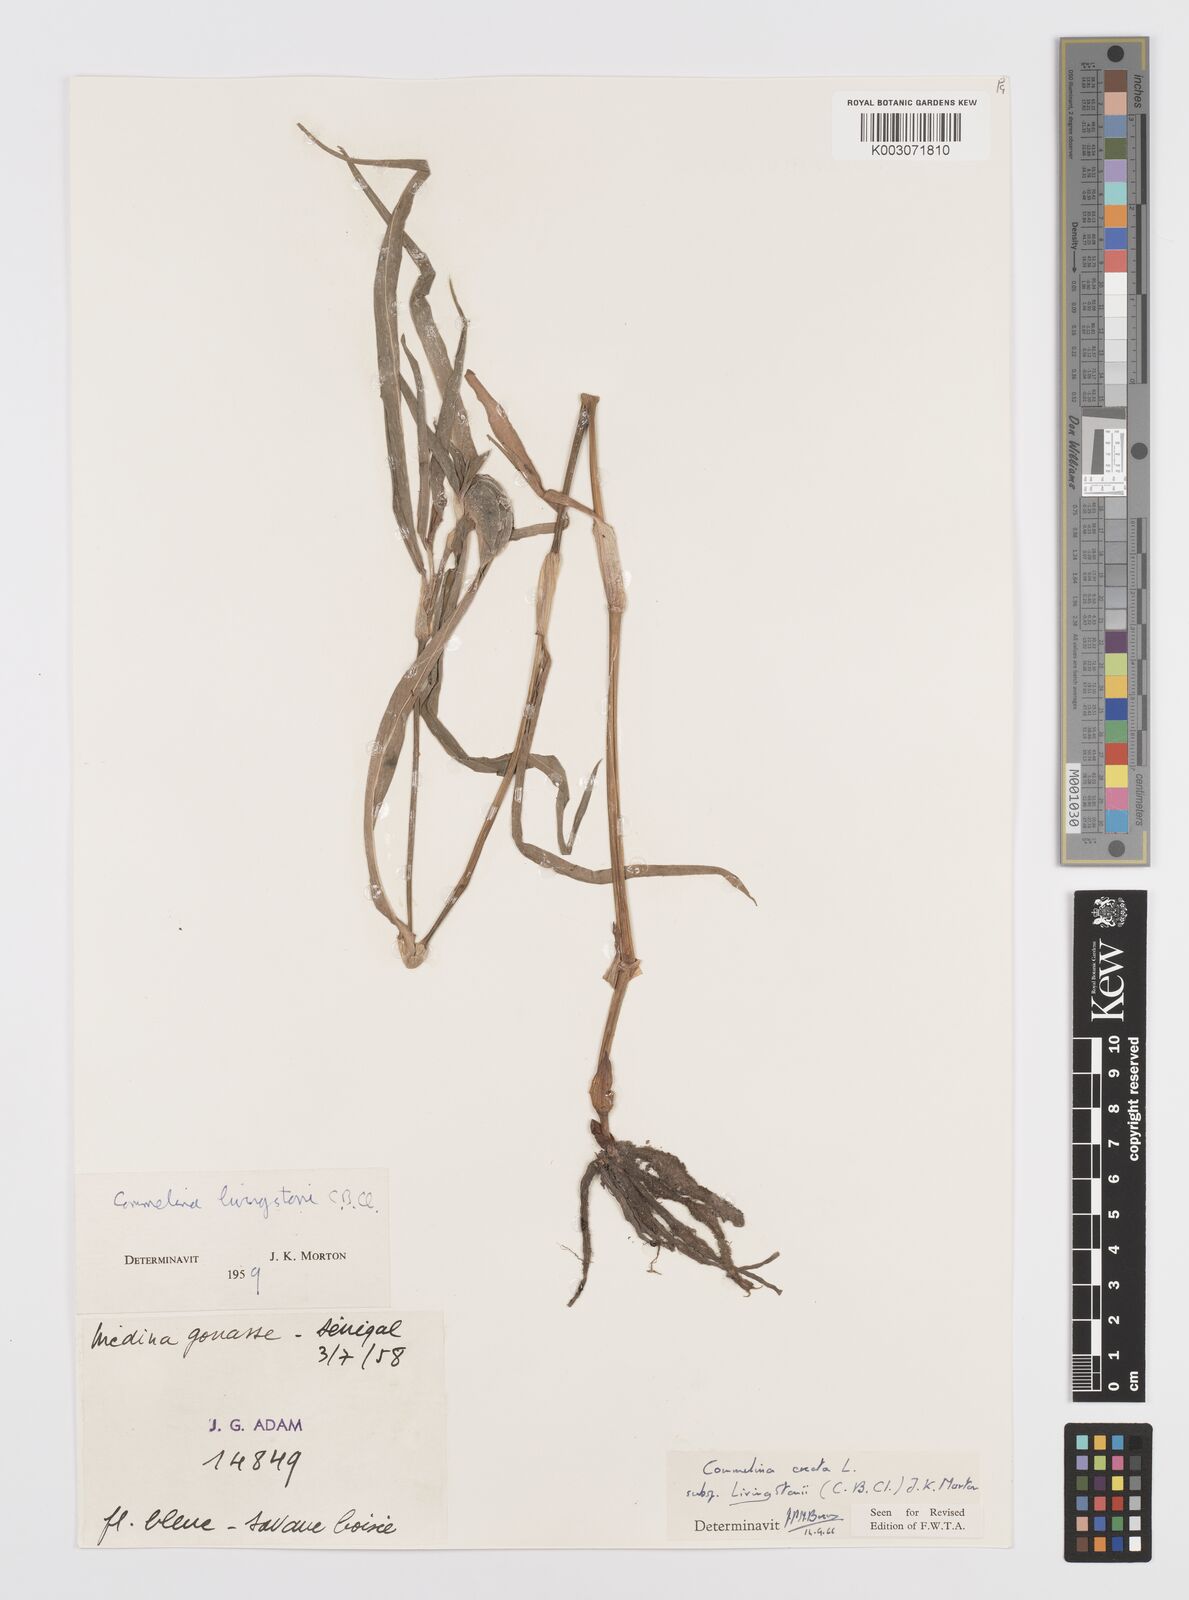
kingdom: Plantae
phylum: Tracheophyta
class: Liliopsida
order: Commelinales
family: Commelinaceae
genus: Commelina
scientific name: Commelina erecta
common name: Blousel blommetjie
